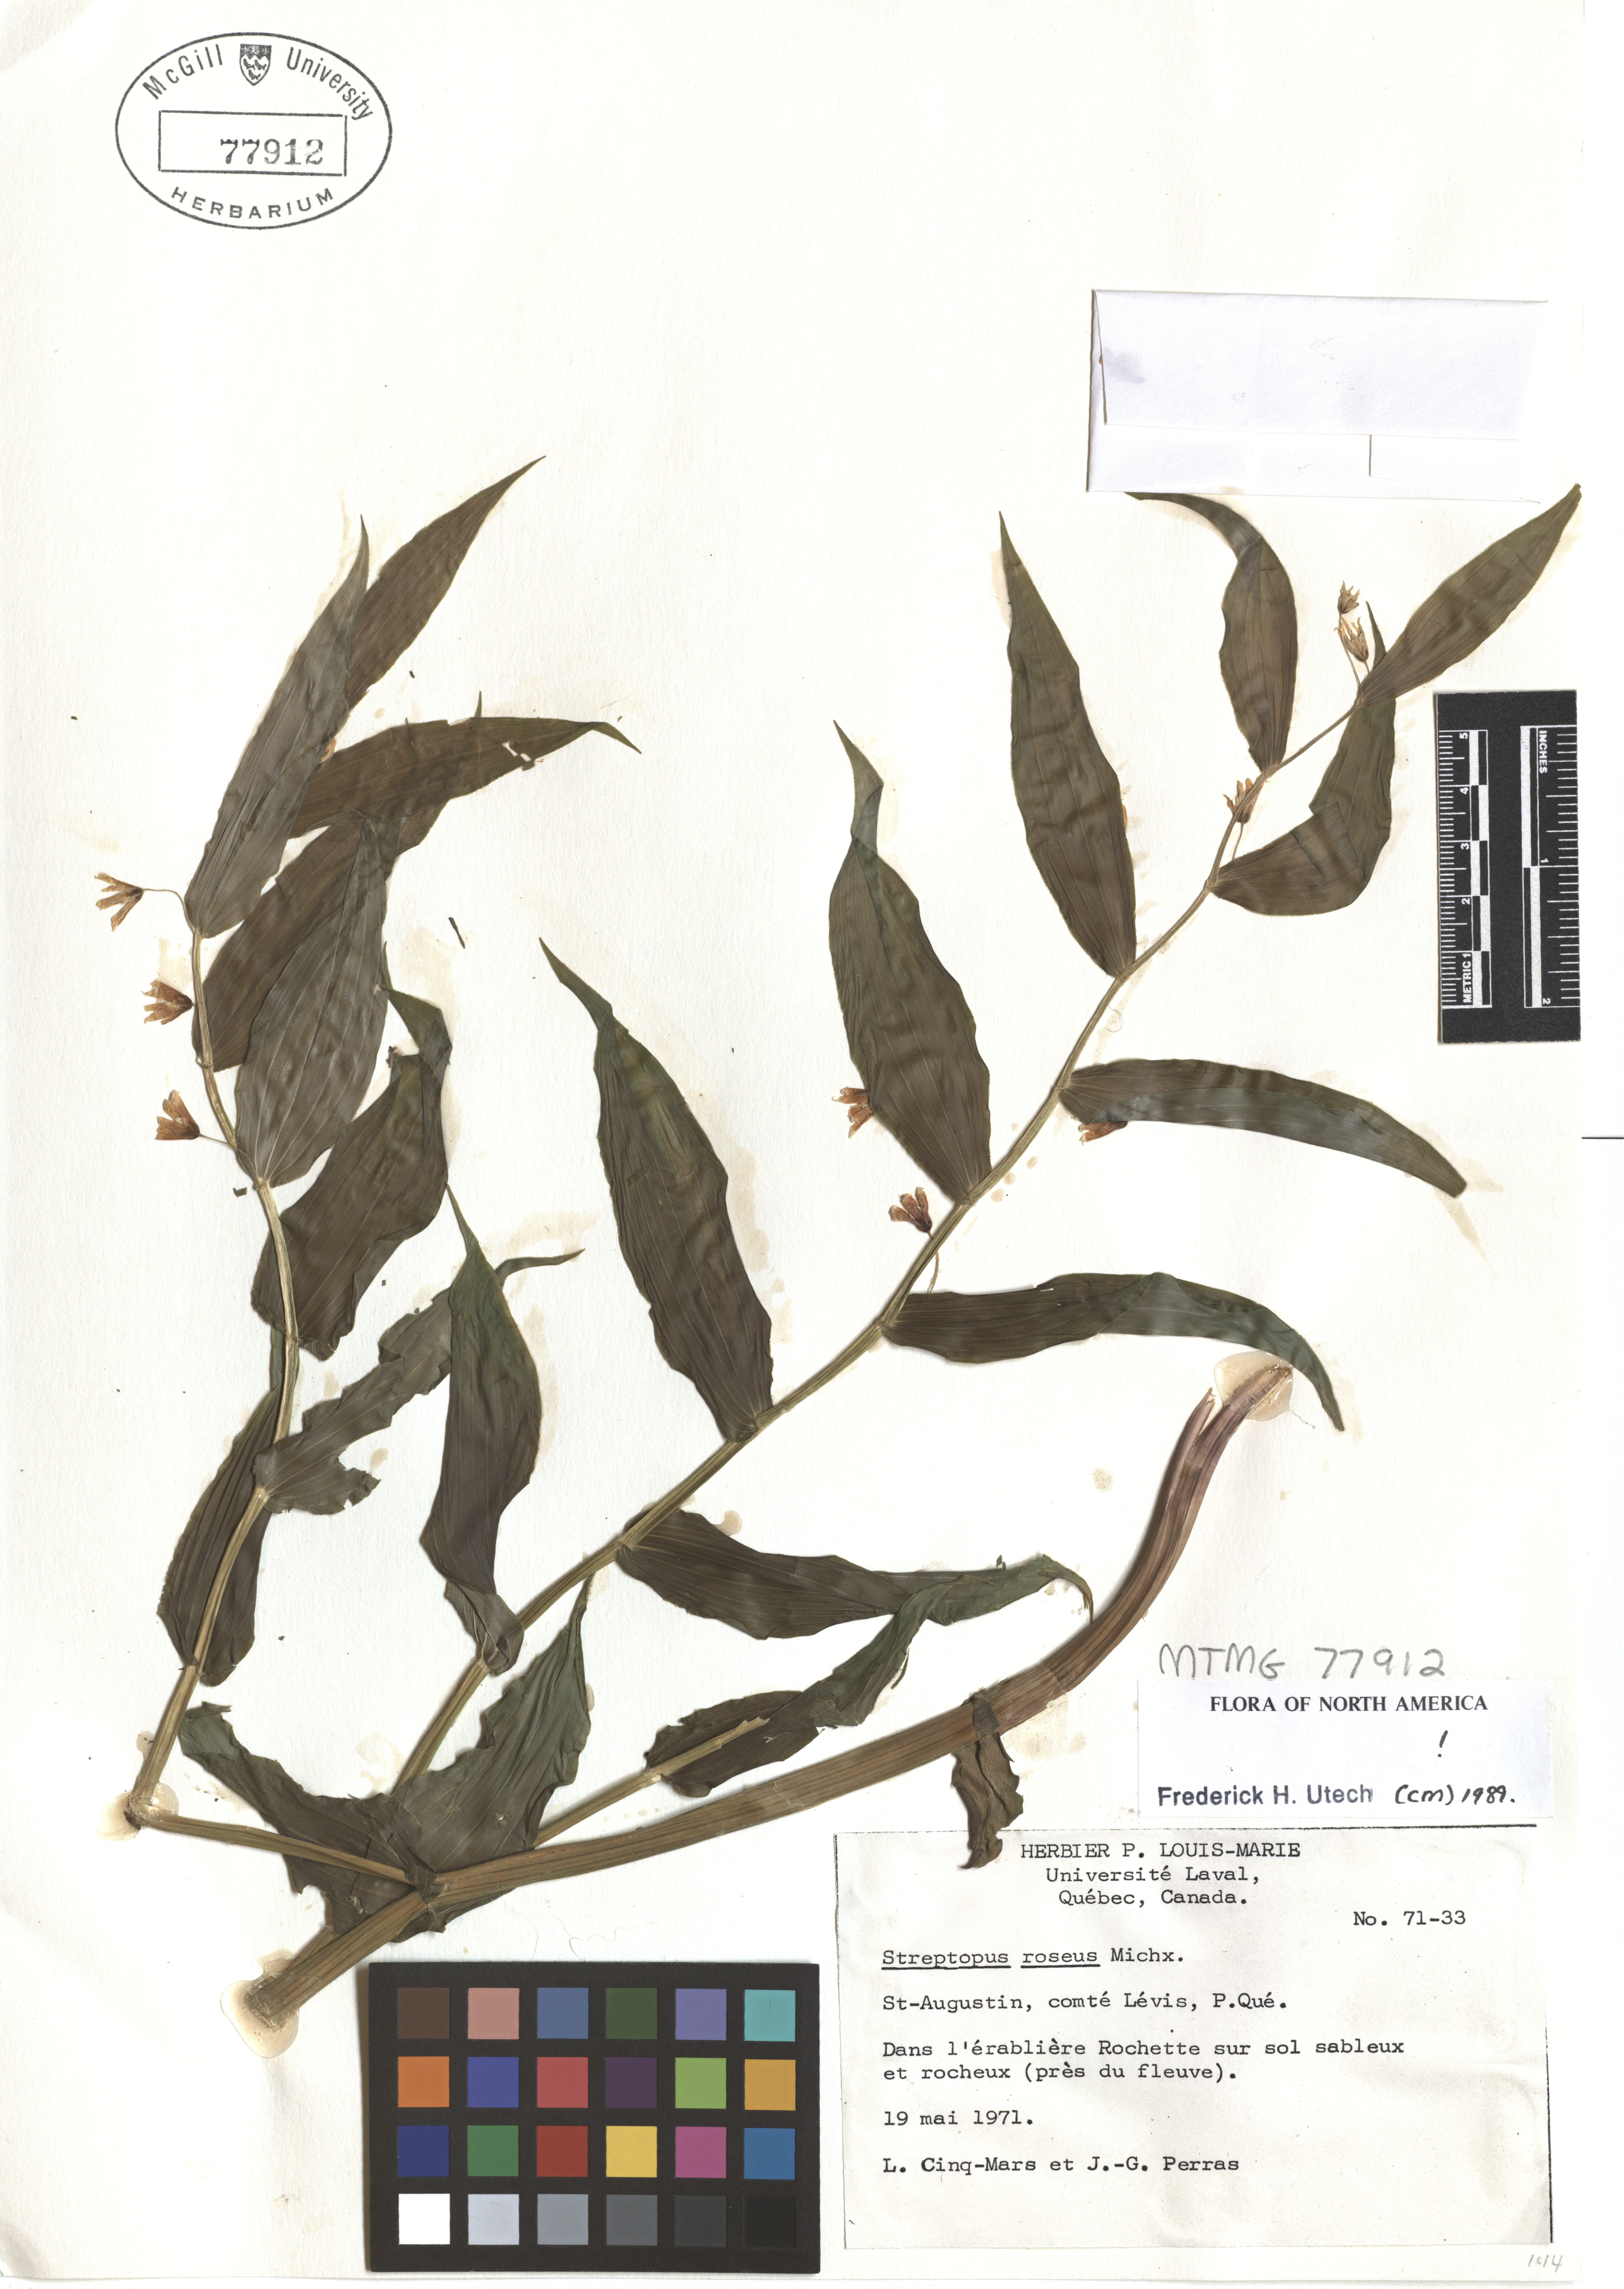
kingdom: Plantae
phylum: Tracheophyta
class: Liliopsida
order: Liliales
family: Liliaceae
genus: Streptopus
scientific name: Streptopus lanceolatus
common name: Rose mandarin
